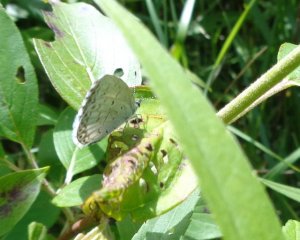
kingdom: Animalia
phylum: Arthropoda
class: Insecta
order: Lepidoptera
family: Lycaenidae
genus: Cyaniris
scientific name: Cyaniris neglecta
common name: Summer Azure
